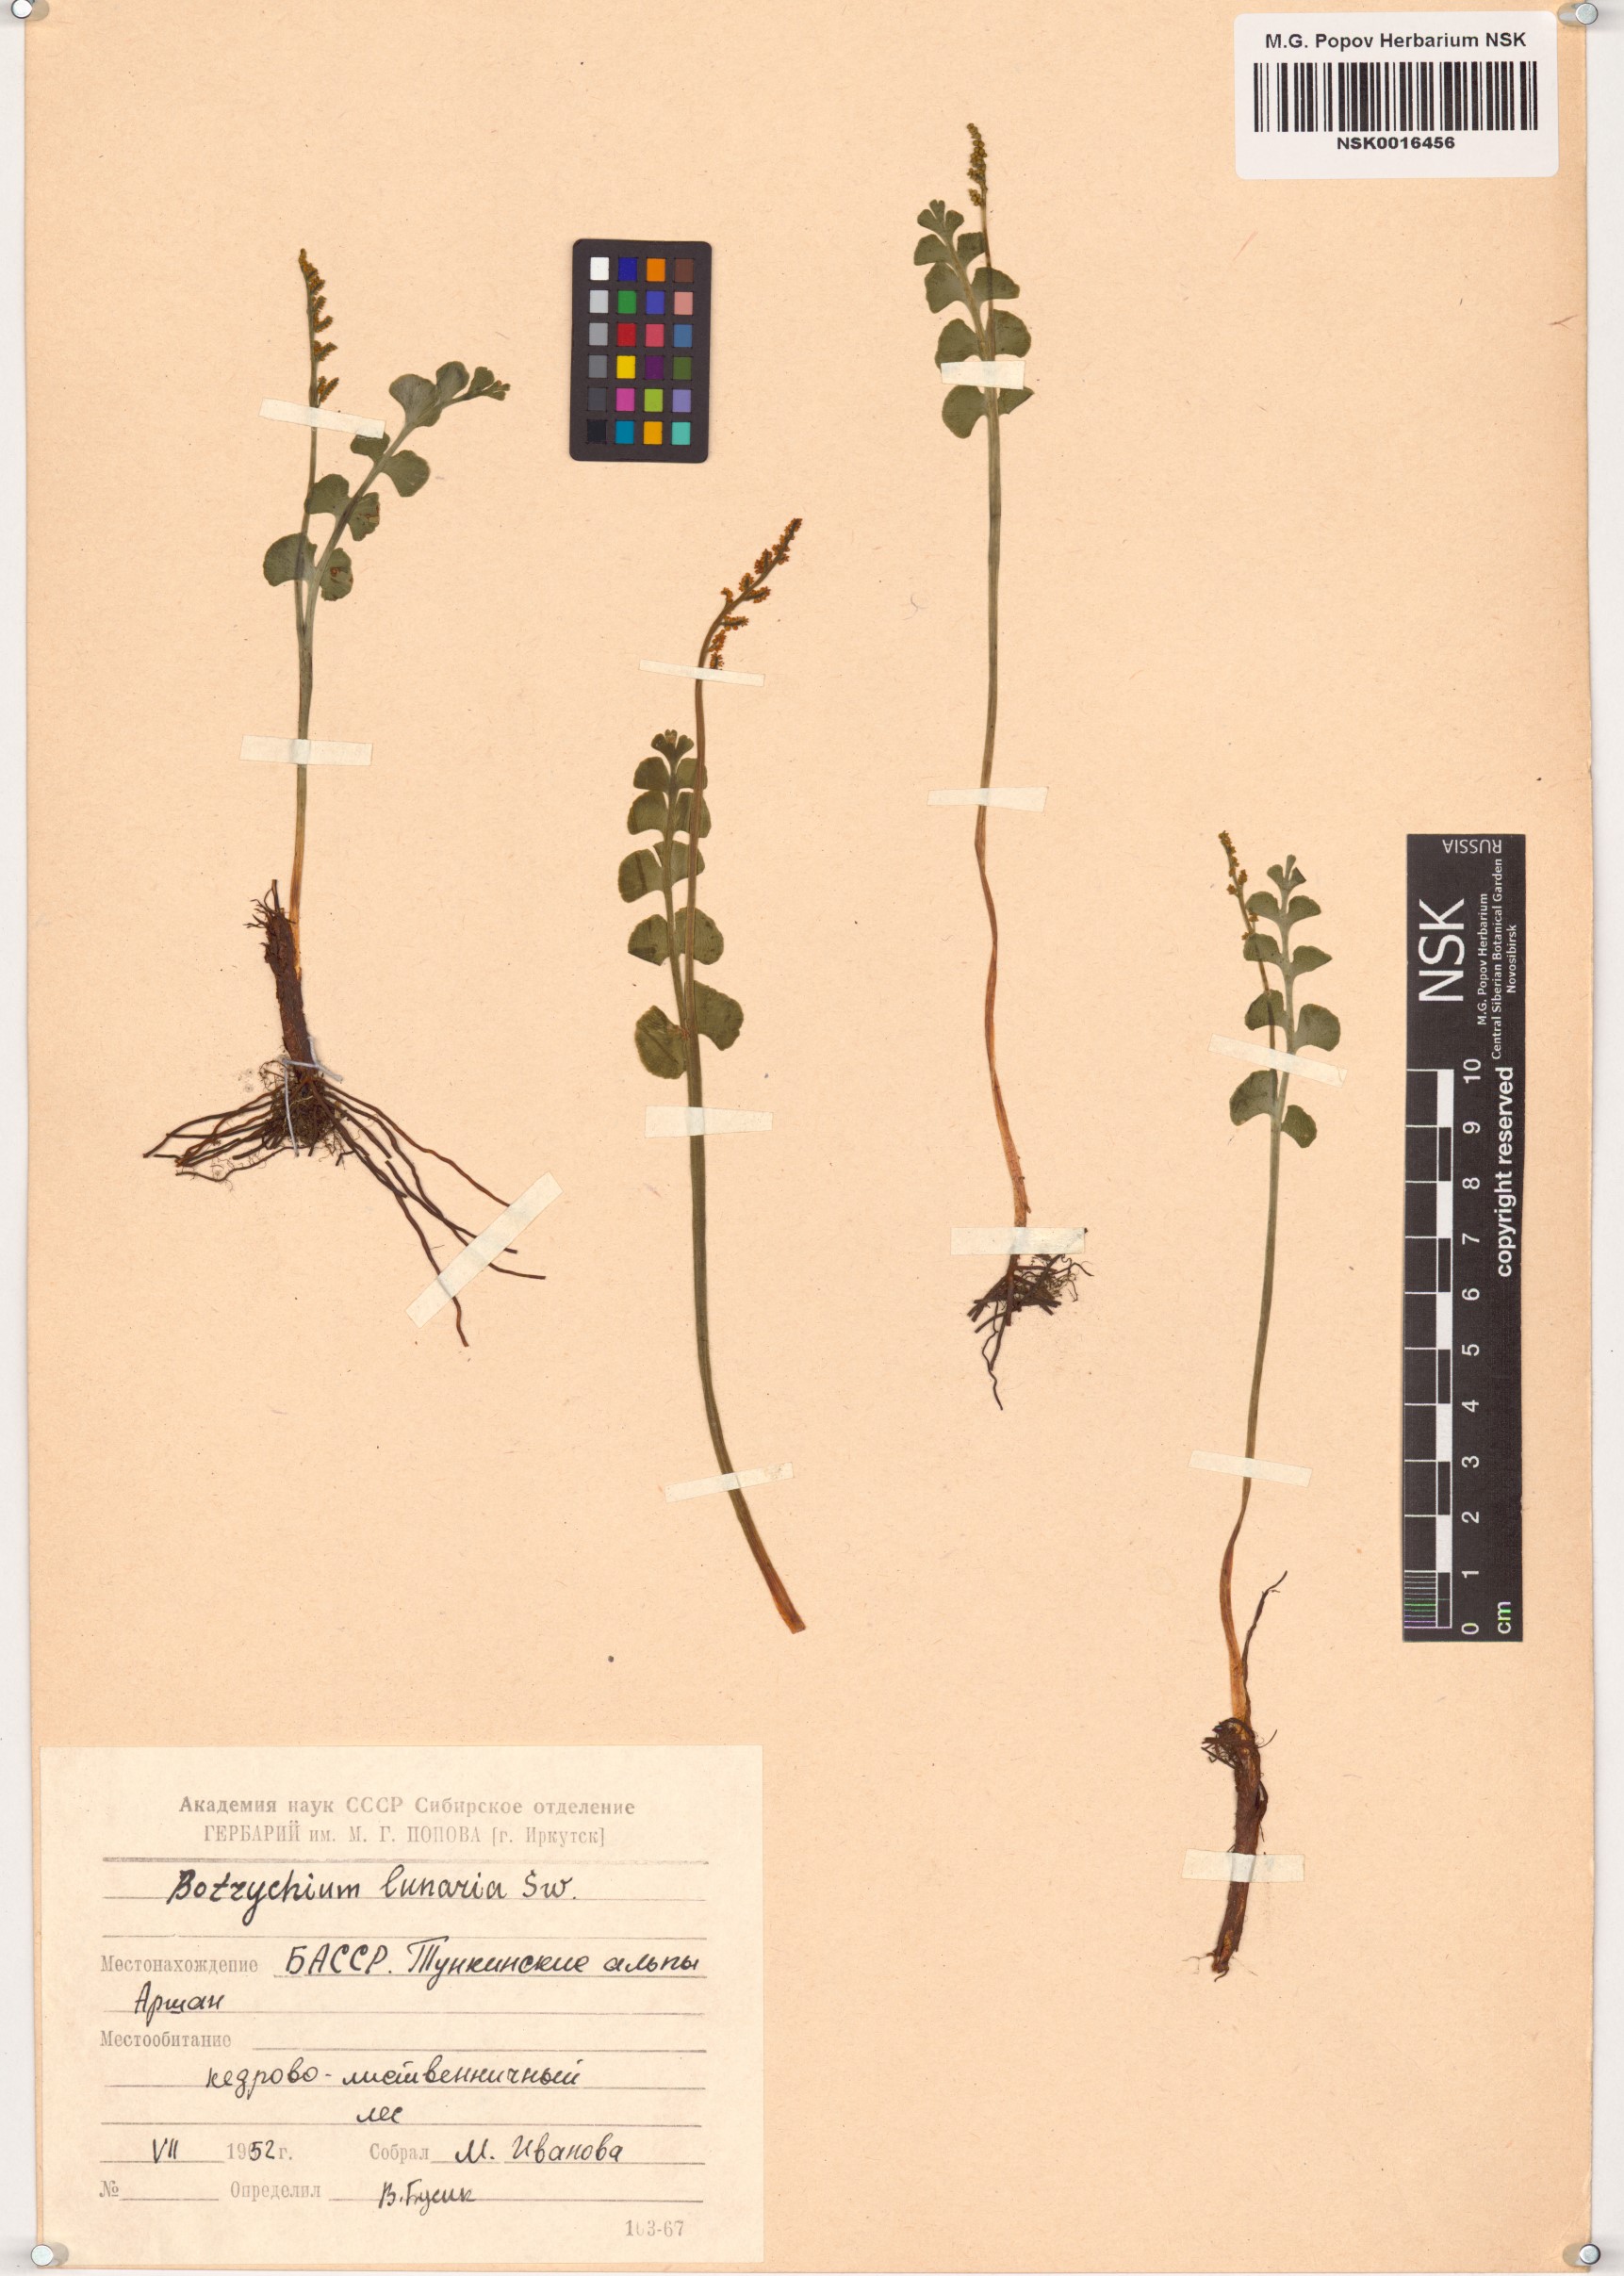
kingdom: Plantae
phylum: Tracheophyta
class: Polypodiopsida
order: Ophioglossales
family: Ophioglossaceae
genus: Botrychium
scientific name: Botrychium lunaria
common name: Moonwort
